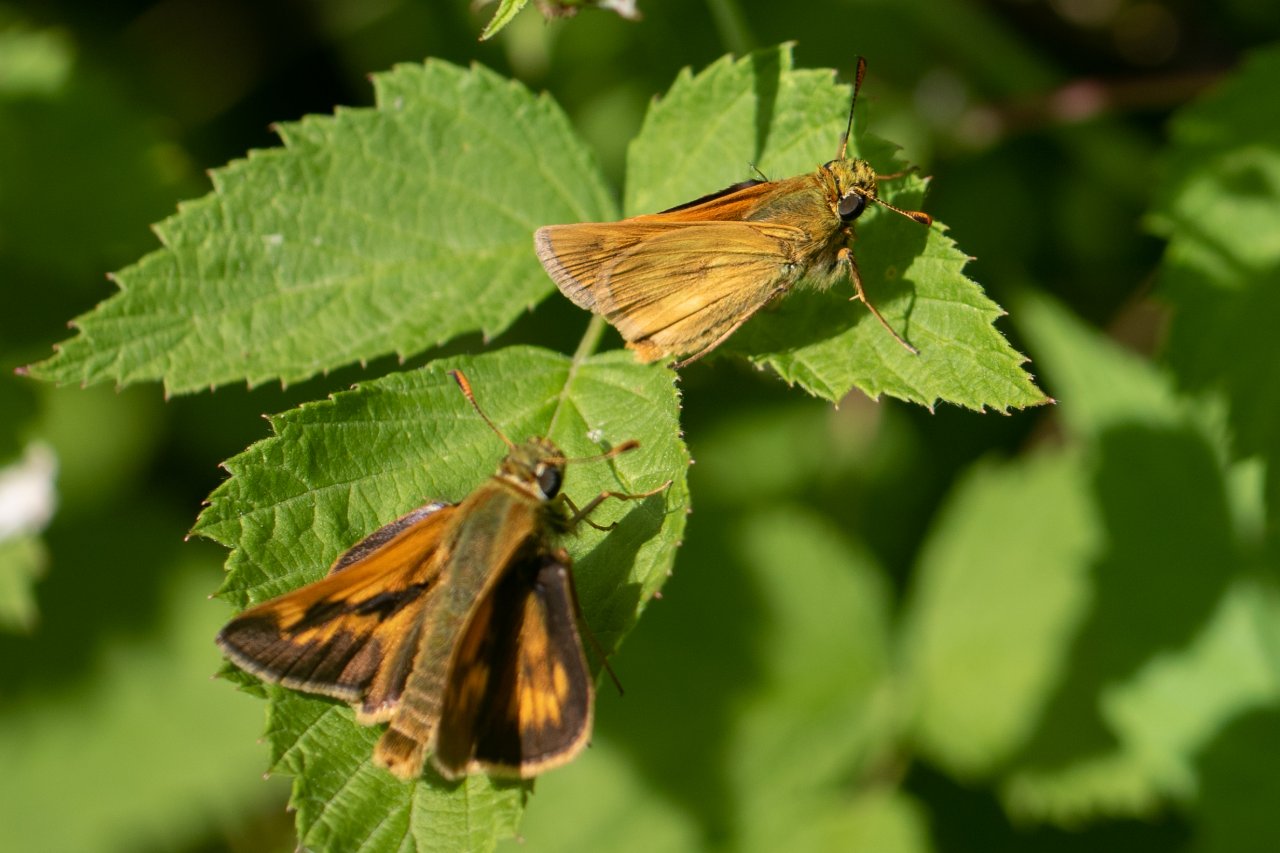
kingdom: Animalia
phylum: Arthropoda
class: Insecta
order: Lepidoptera
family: Hesperiidae
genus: Polites
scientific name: Polites
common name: Long Dash Skipper
